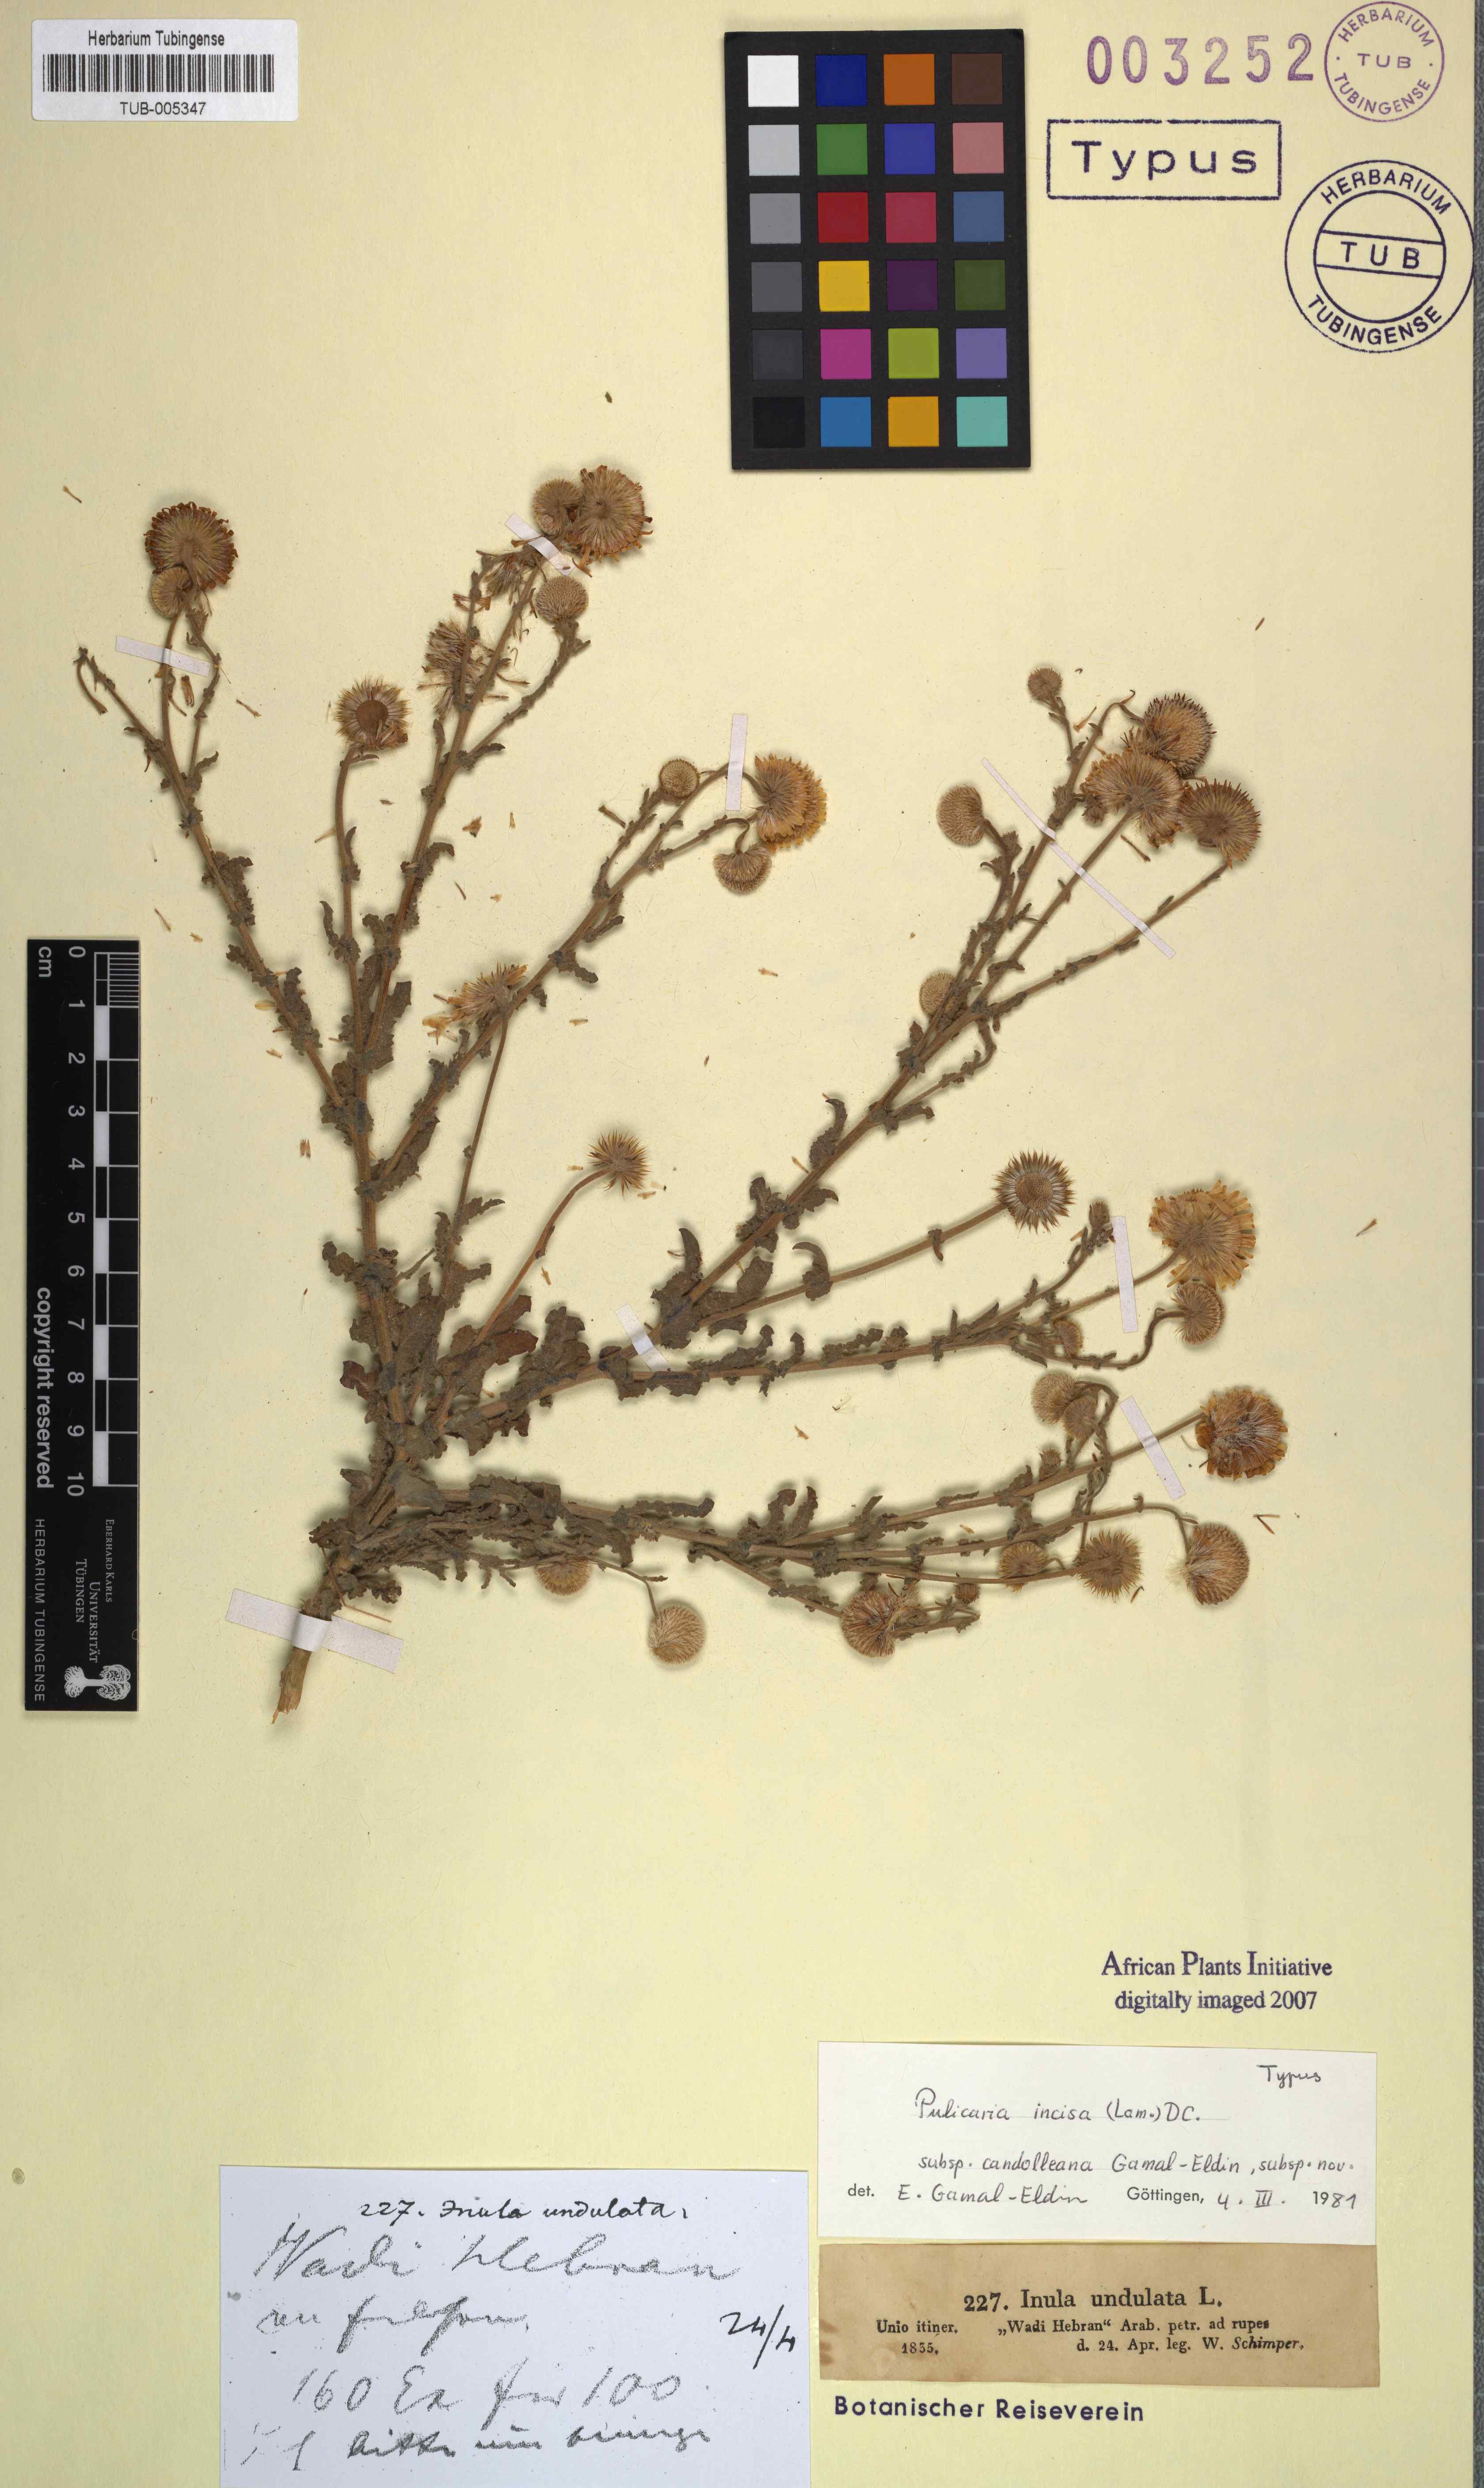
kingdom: Plantae
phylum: Tracheophyta
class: Magnoliopsida
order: Asterales
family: Asteraceae
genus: Pulicaria
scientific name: Pulicaria incisa
